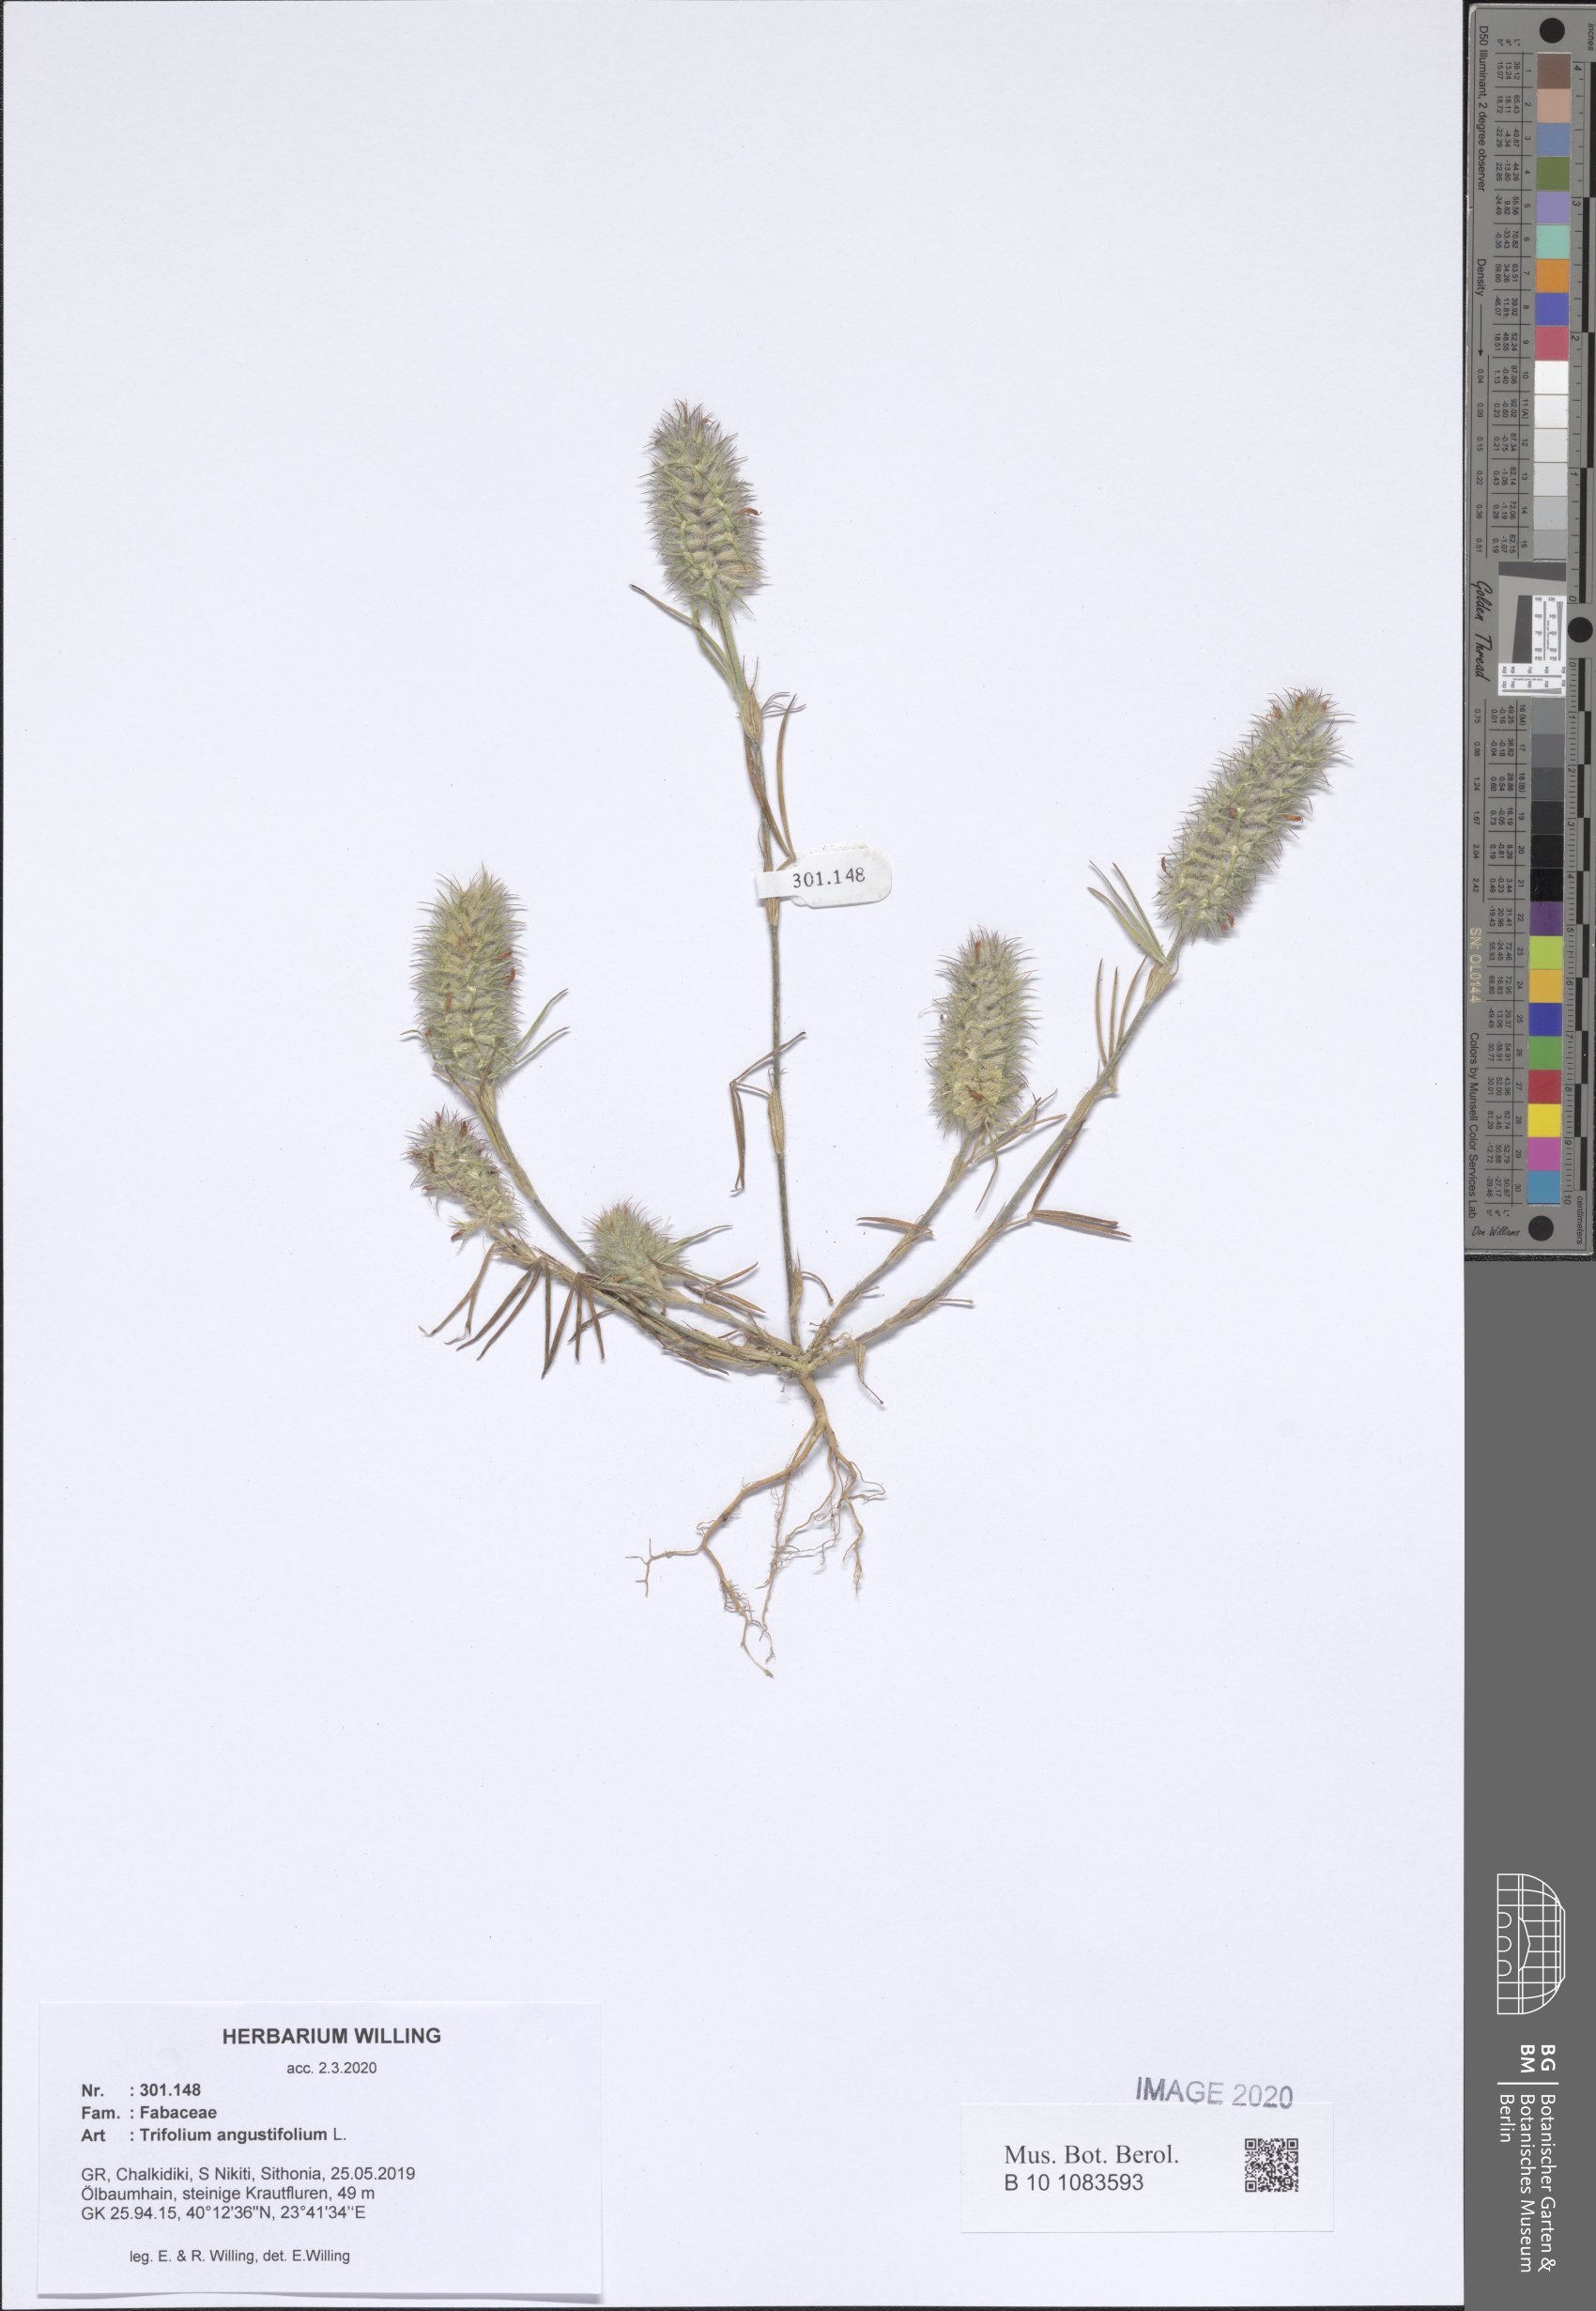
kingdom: Plantae
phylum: Tracheophyta
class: Magnoliopsida
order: Fabales
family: Fabaceae
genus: Trifolium
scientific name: Trifolium angustifolium
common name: Narrow clover
